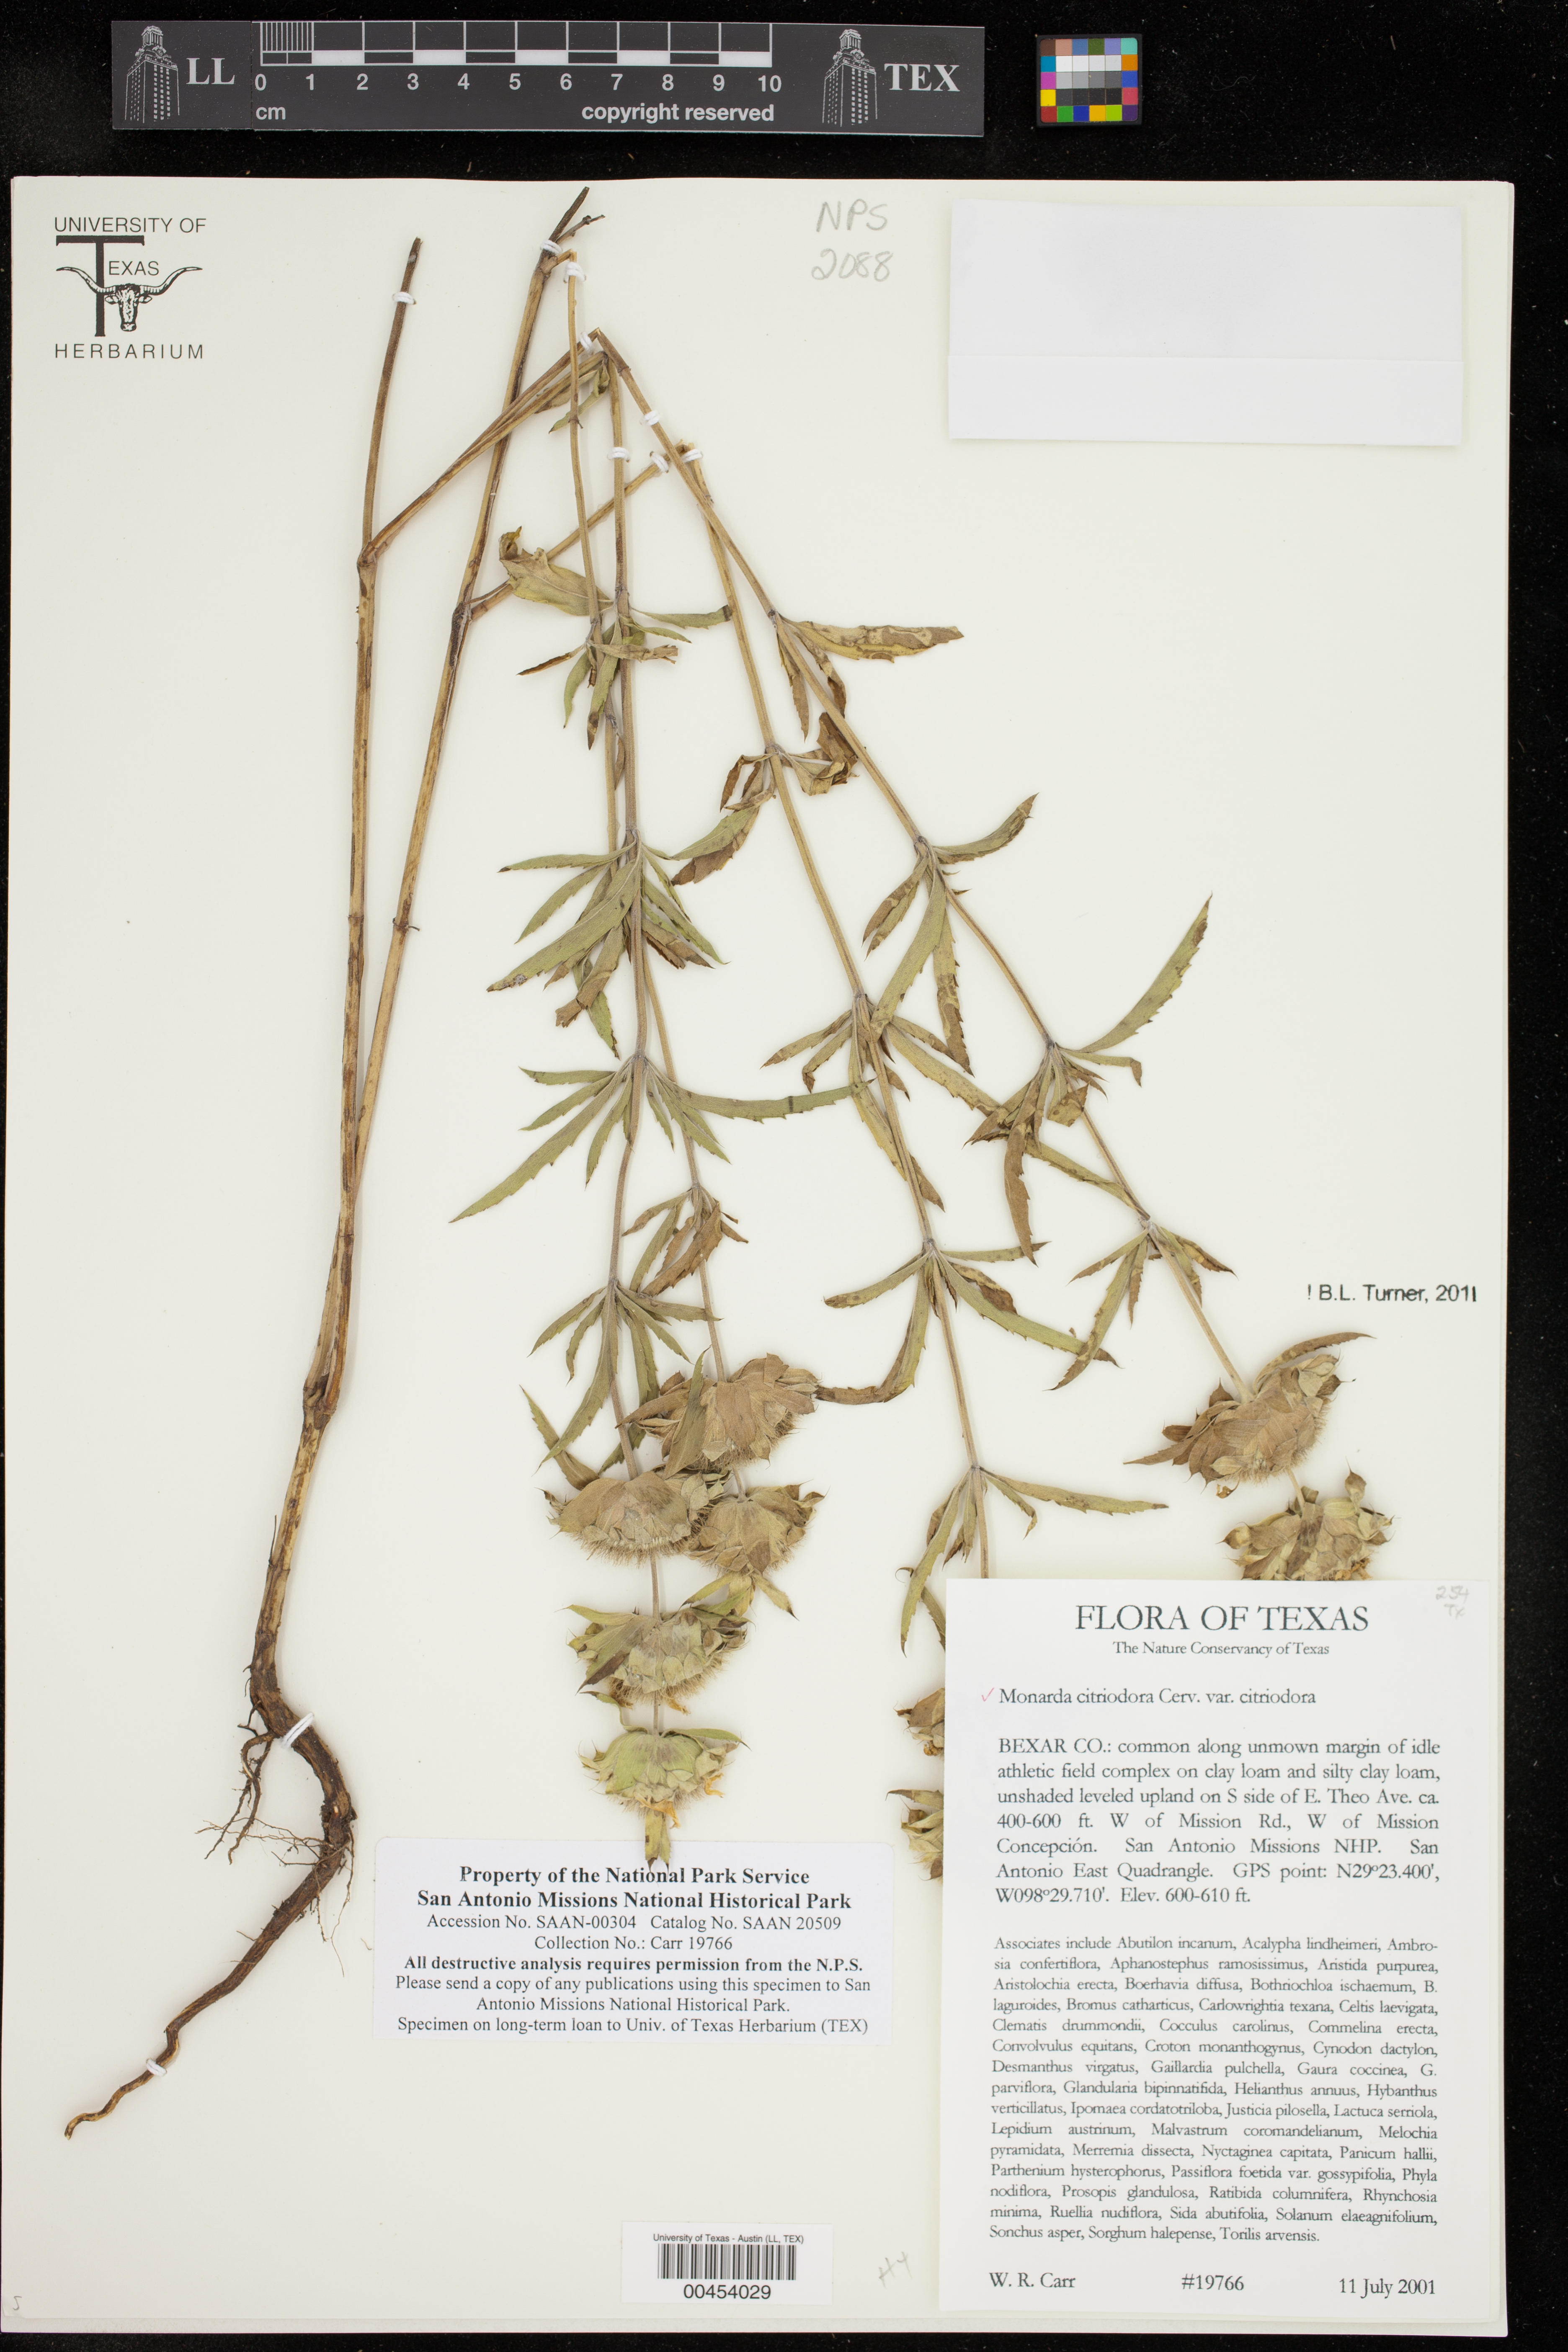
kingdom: Plantae
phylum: Tracheophyta
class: Magnoliopsida
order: Lamiales
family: Lamiaceae
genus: Monarda
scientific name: Monarda citriodora
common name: Lemon beebalm
